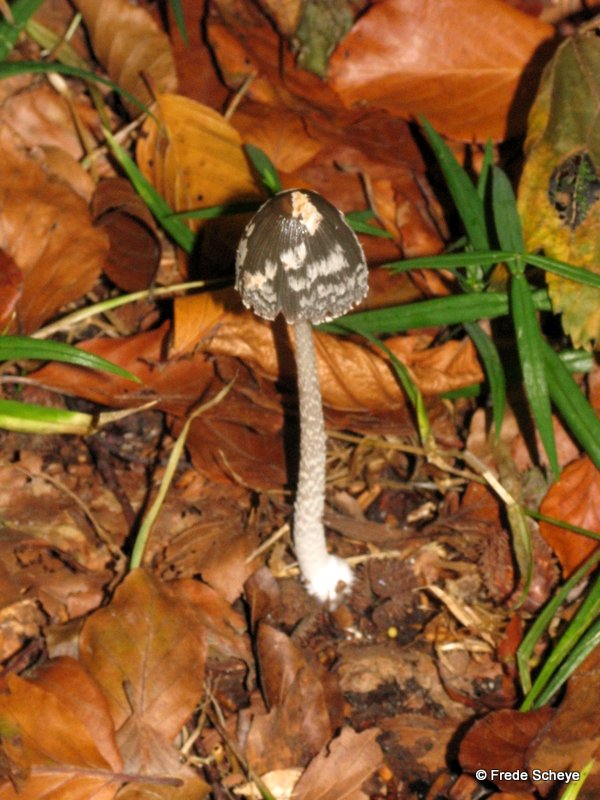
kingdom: Fungi
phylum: Basidiomycota
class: Agaricomycetes
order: Agaricales
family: Psathyrellaceae
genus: Coprinopsis
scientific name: Coprinopsis picacea
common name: skade-blækhat
